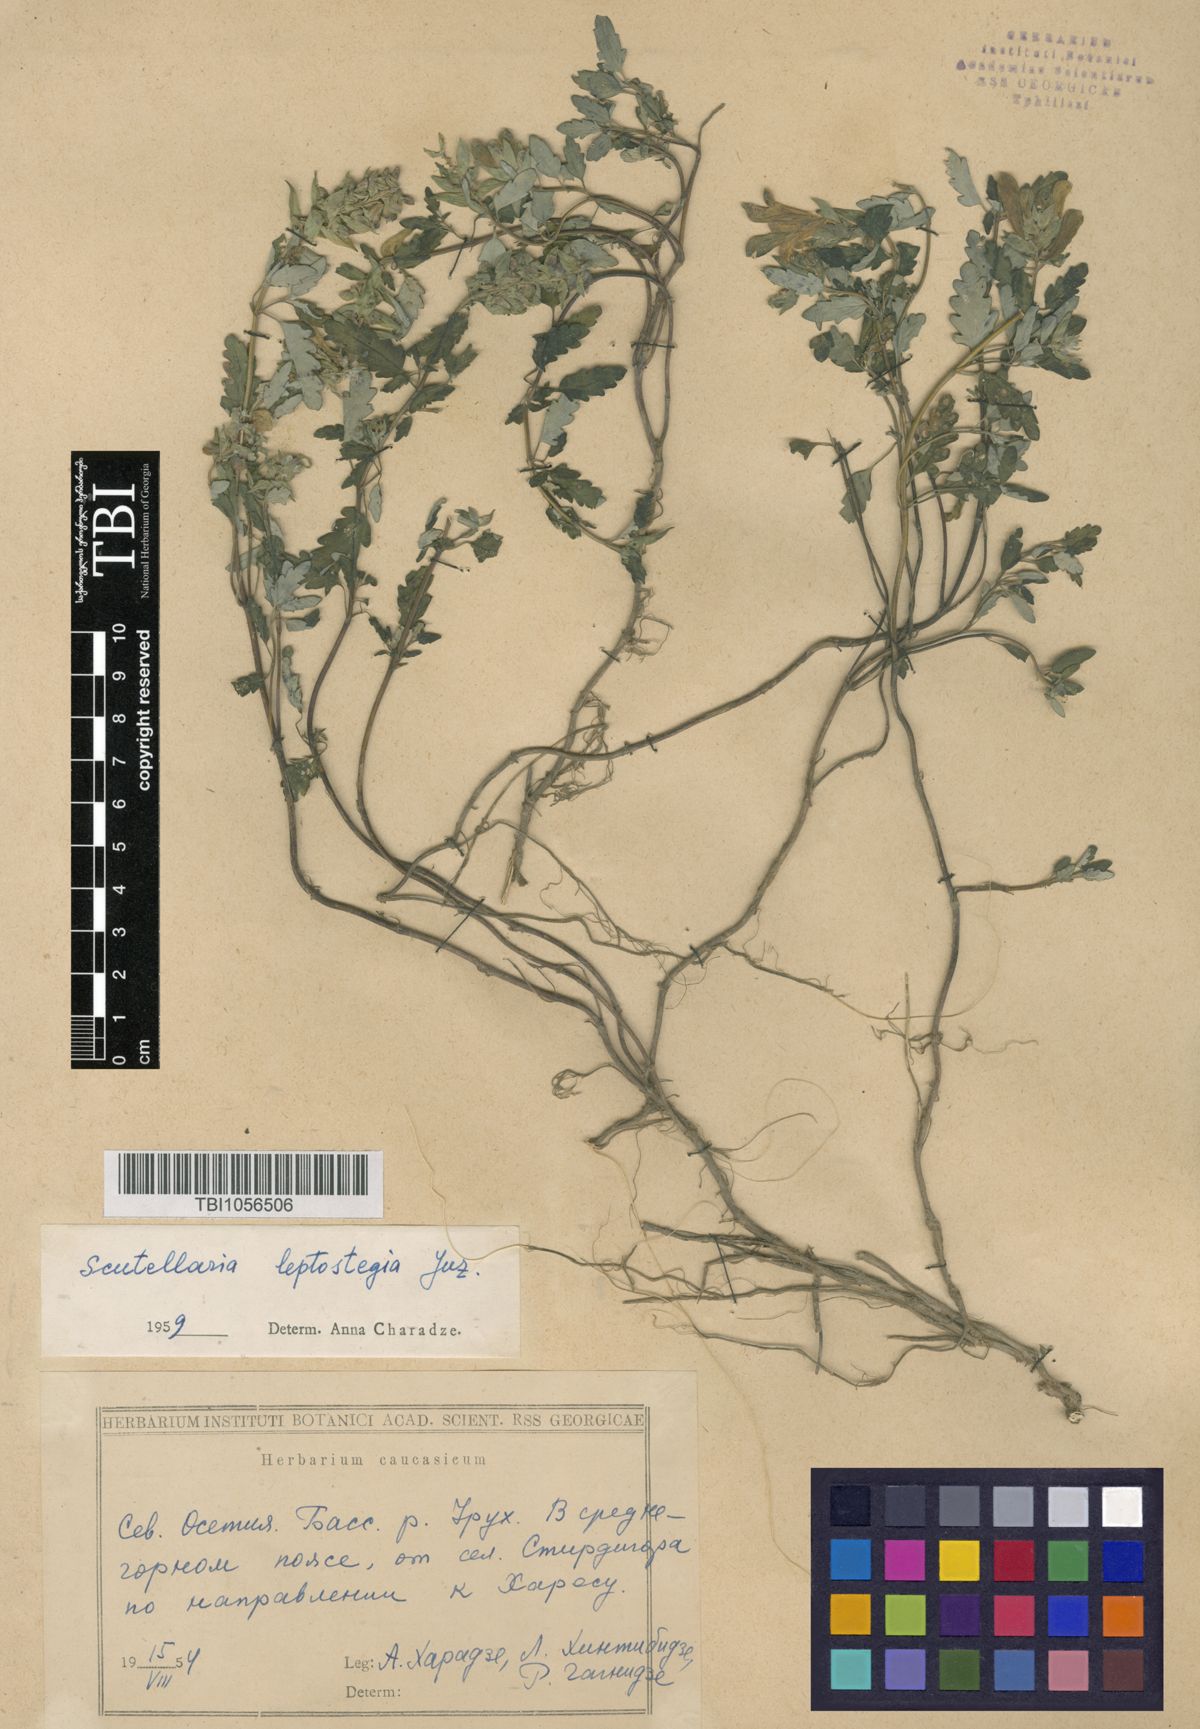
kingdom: Plantae
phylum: Tracheophyta
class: Magnoliopsida
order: Lamiales
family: Lamiaceae
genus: Scutellaria
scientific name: Scutellaria leptostegia
